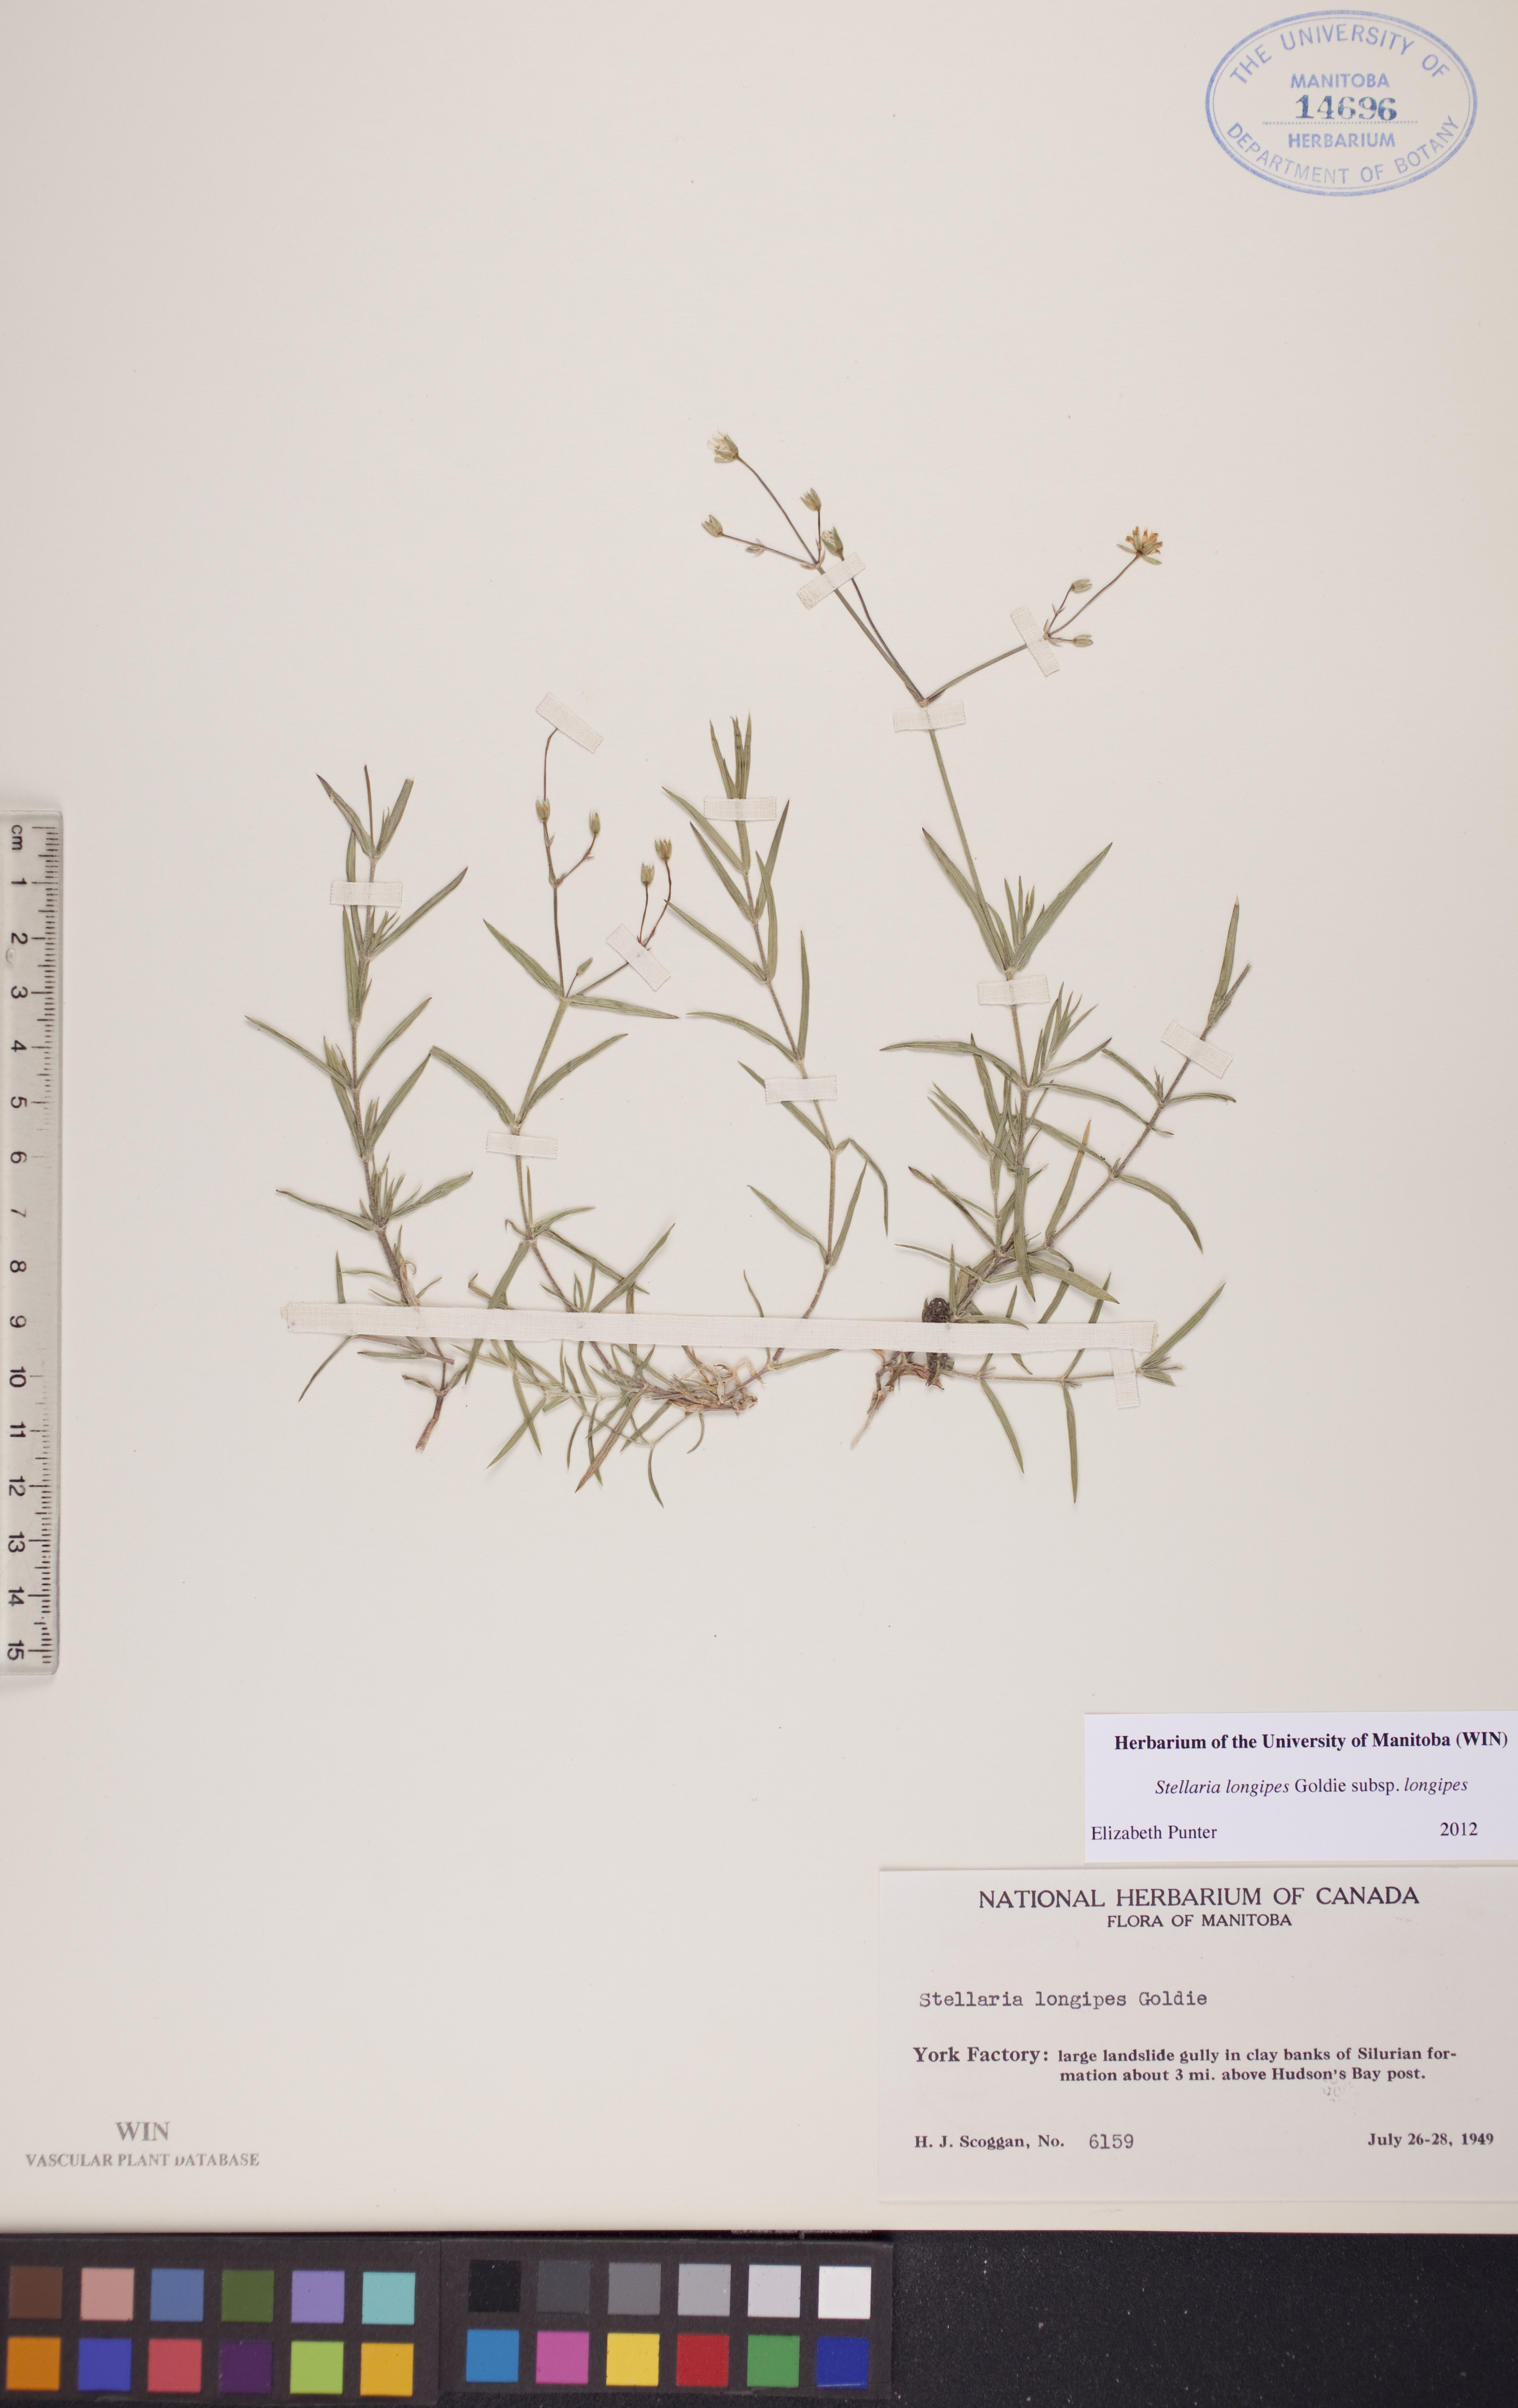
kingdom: Plantae
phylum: Tracheophyta
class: Magnoliopsida
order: Caryophyllales
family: Caryophyllaceae
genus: Stellaria
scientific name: Stellaria longipes
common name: Goldie's starwort
